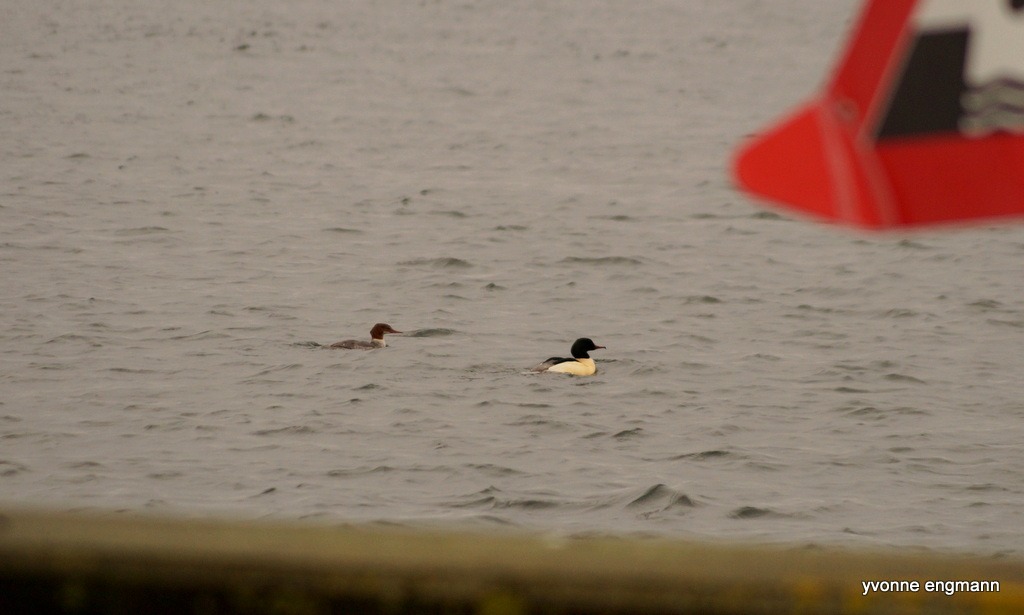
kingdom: Animalia
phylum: Chordata
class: Aves
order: Anseriformes
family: Anatidae
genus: Mergus
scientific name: Mergus merganser
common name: Stor skallesluger
